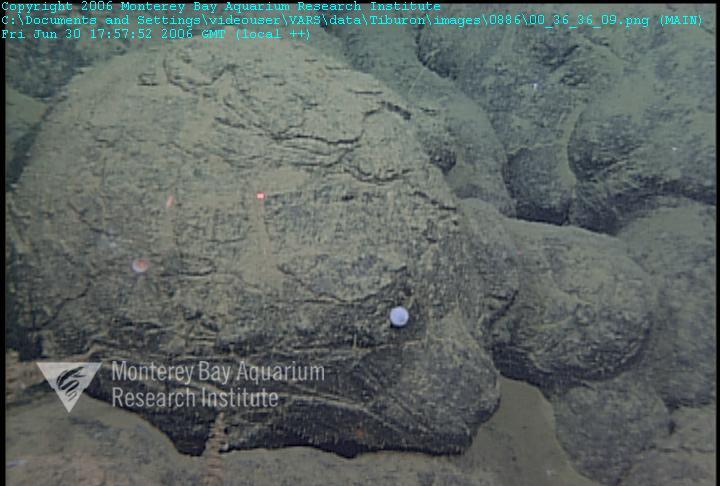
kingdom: Animalia
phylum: Porifera
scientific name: Porifera
